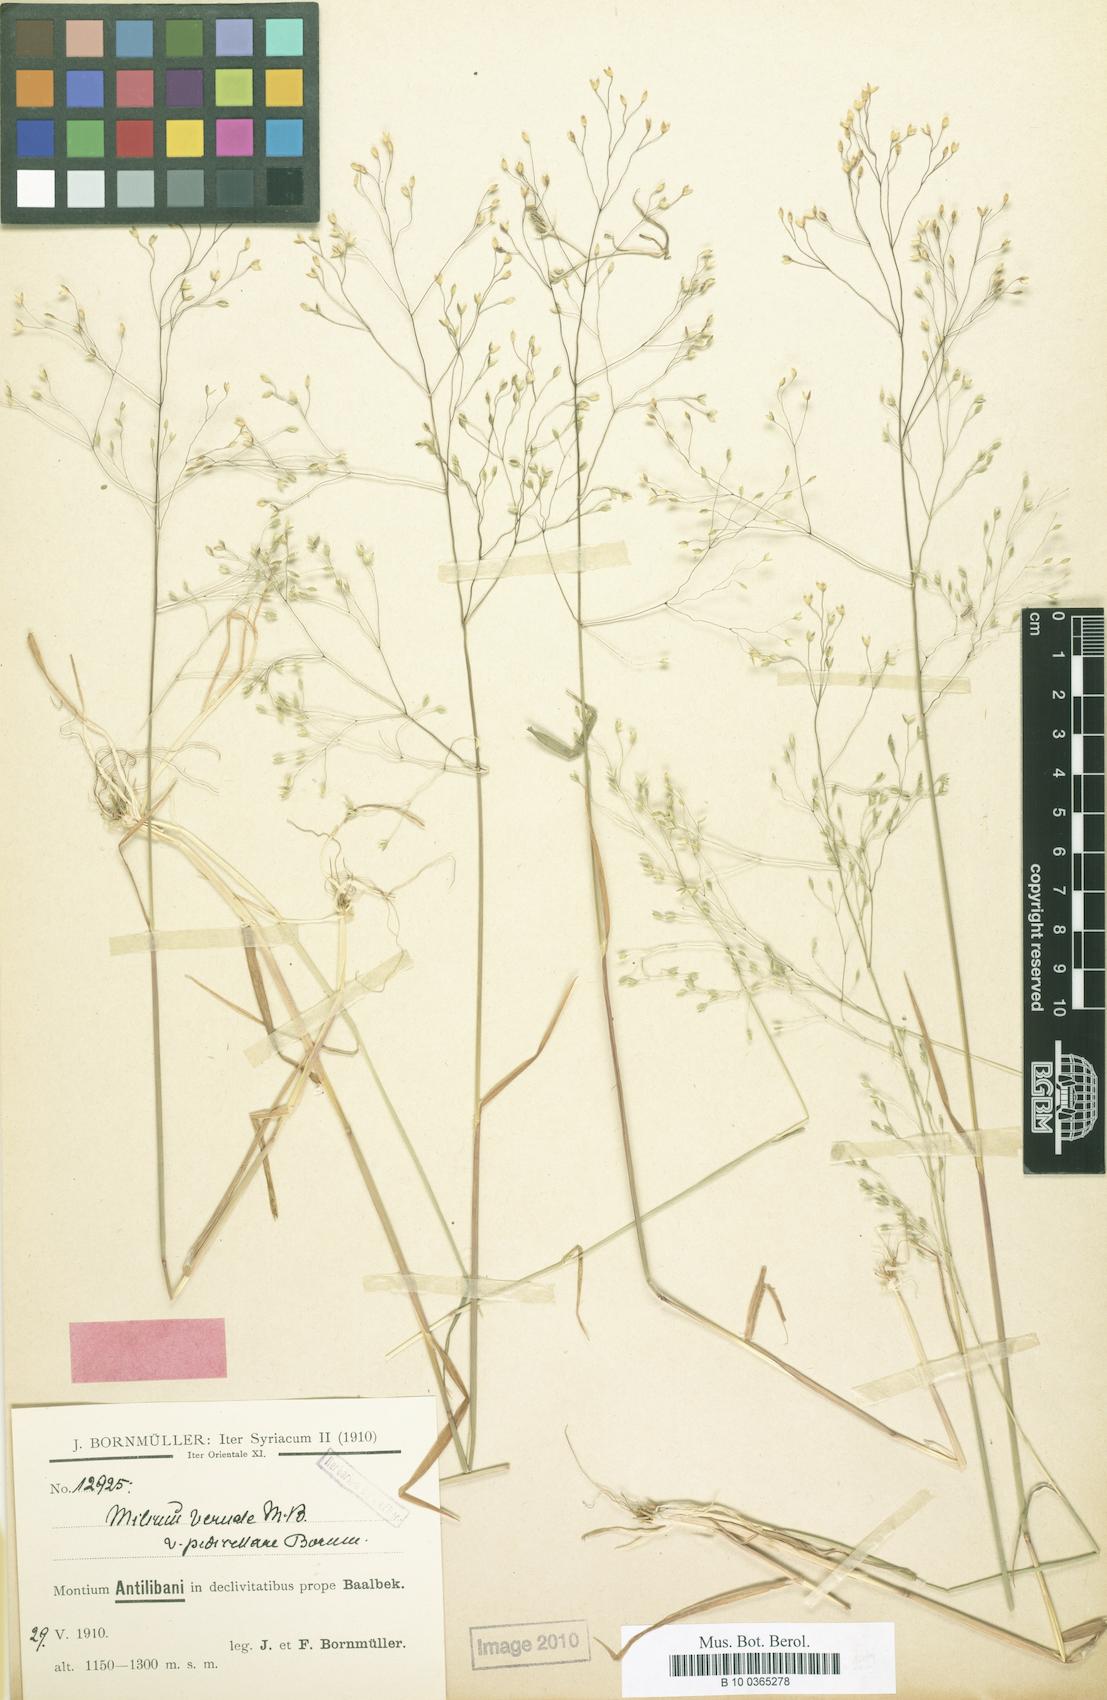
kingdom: Plantae
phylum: Tracheophyta
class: Liliopsida
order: Poales
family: Poaceae
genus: Milium
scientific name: Milium pedicellare
